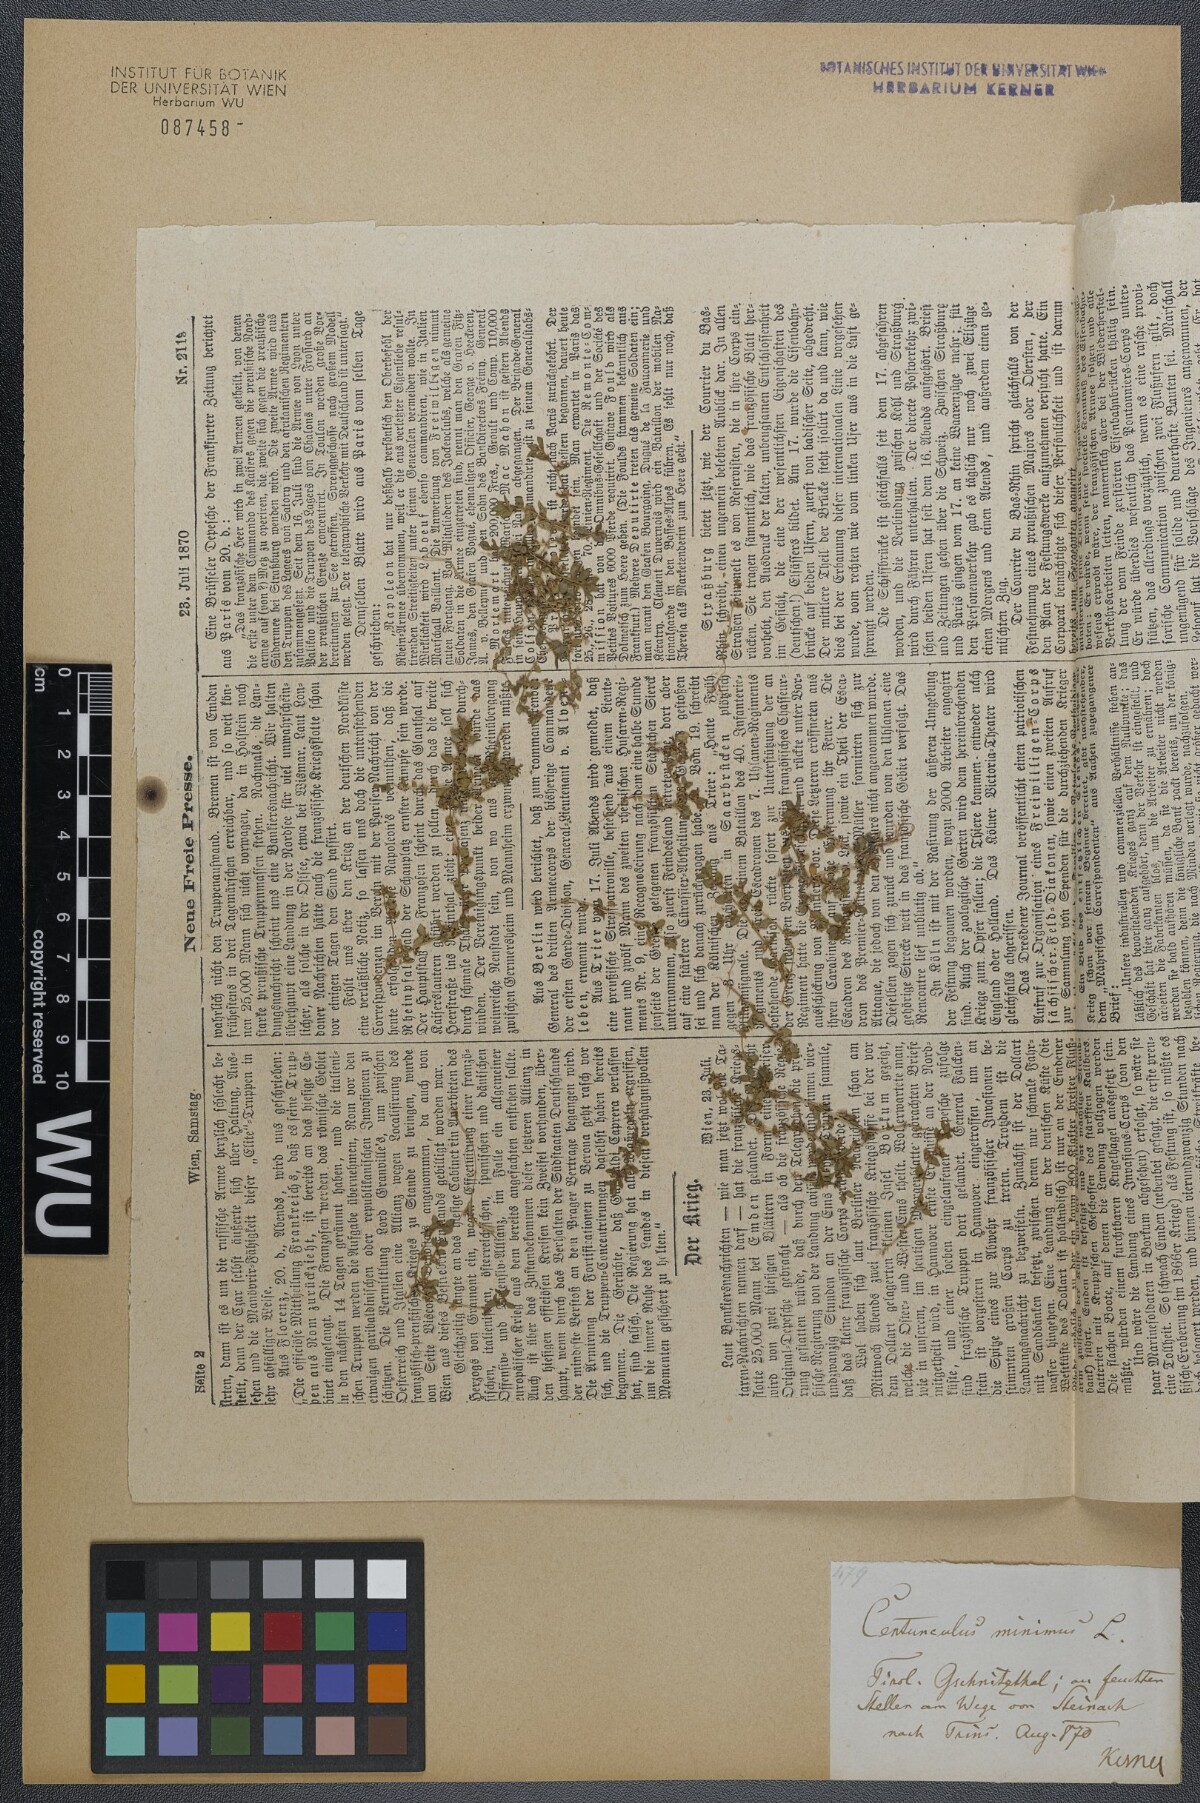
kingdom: Plantae
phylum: Tracheophyta
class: Magnoliopsida
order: Ericales
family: Primulaceae
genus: Lysimachia
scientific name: Lysimachia minima
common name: Chaffweed
